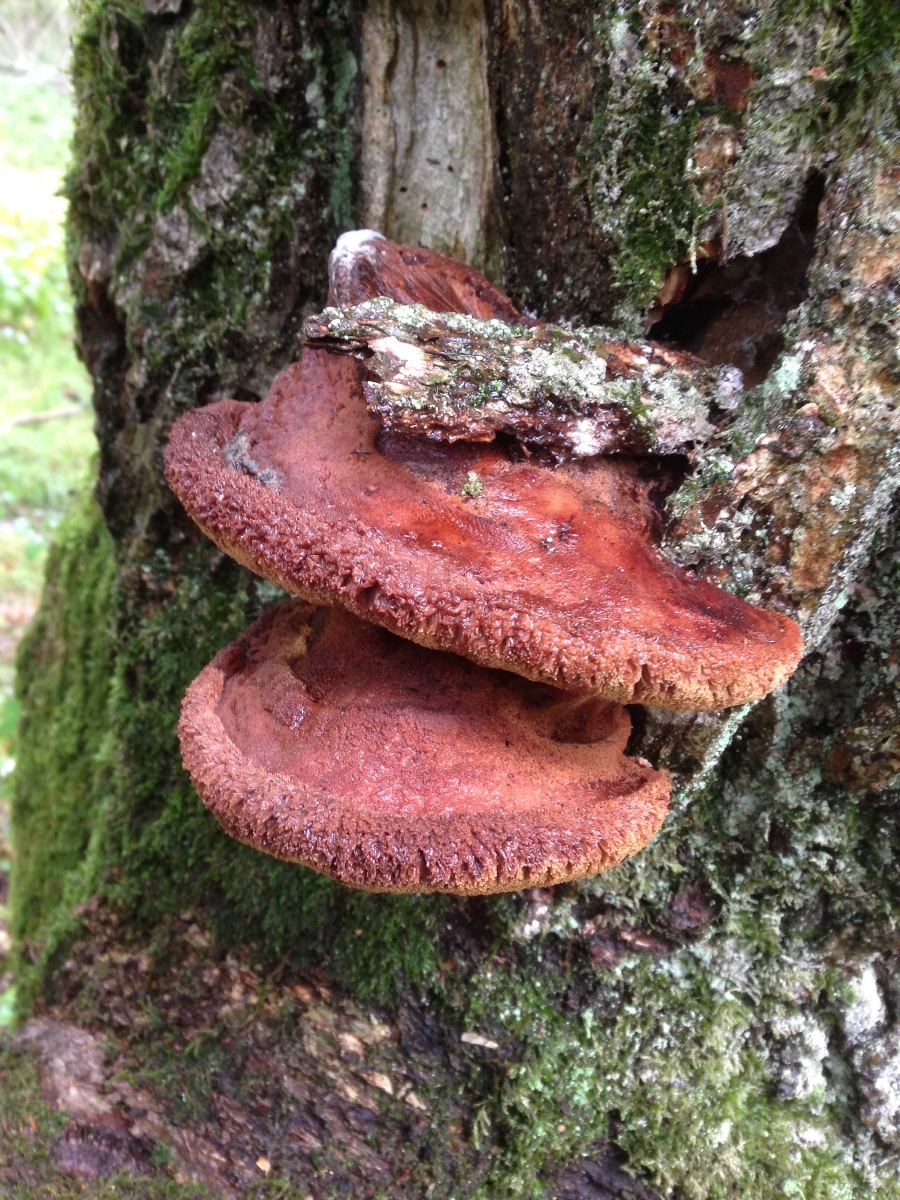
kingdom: Fungi
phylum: Basidiomycota
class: Agaricomycetes
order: Agaricales
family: Fistulinaceae
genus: Fistulina
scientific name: Fistulina hepatica
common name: oksetunge
